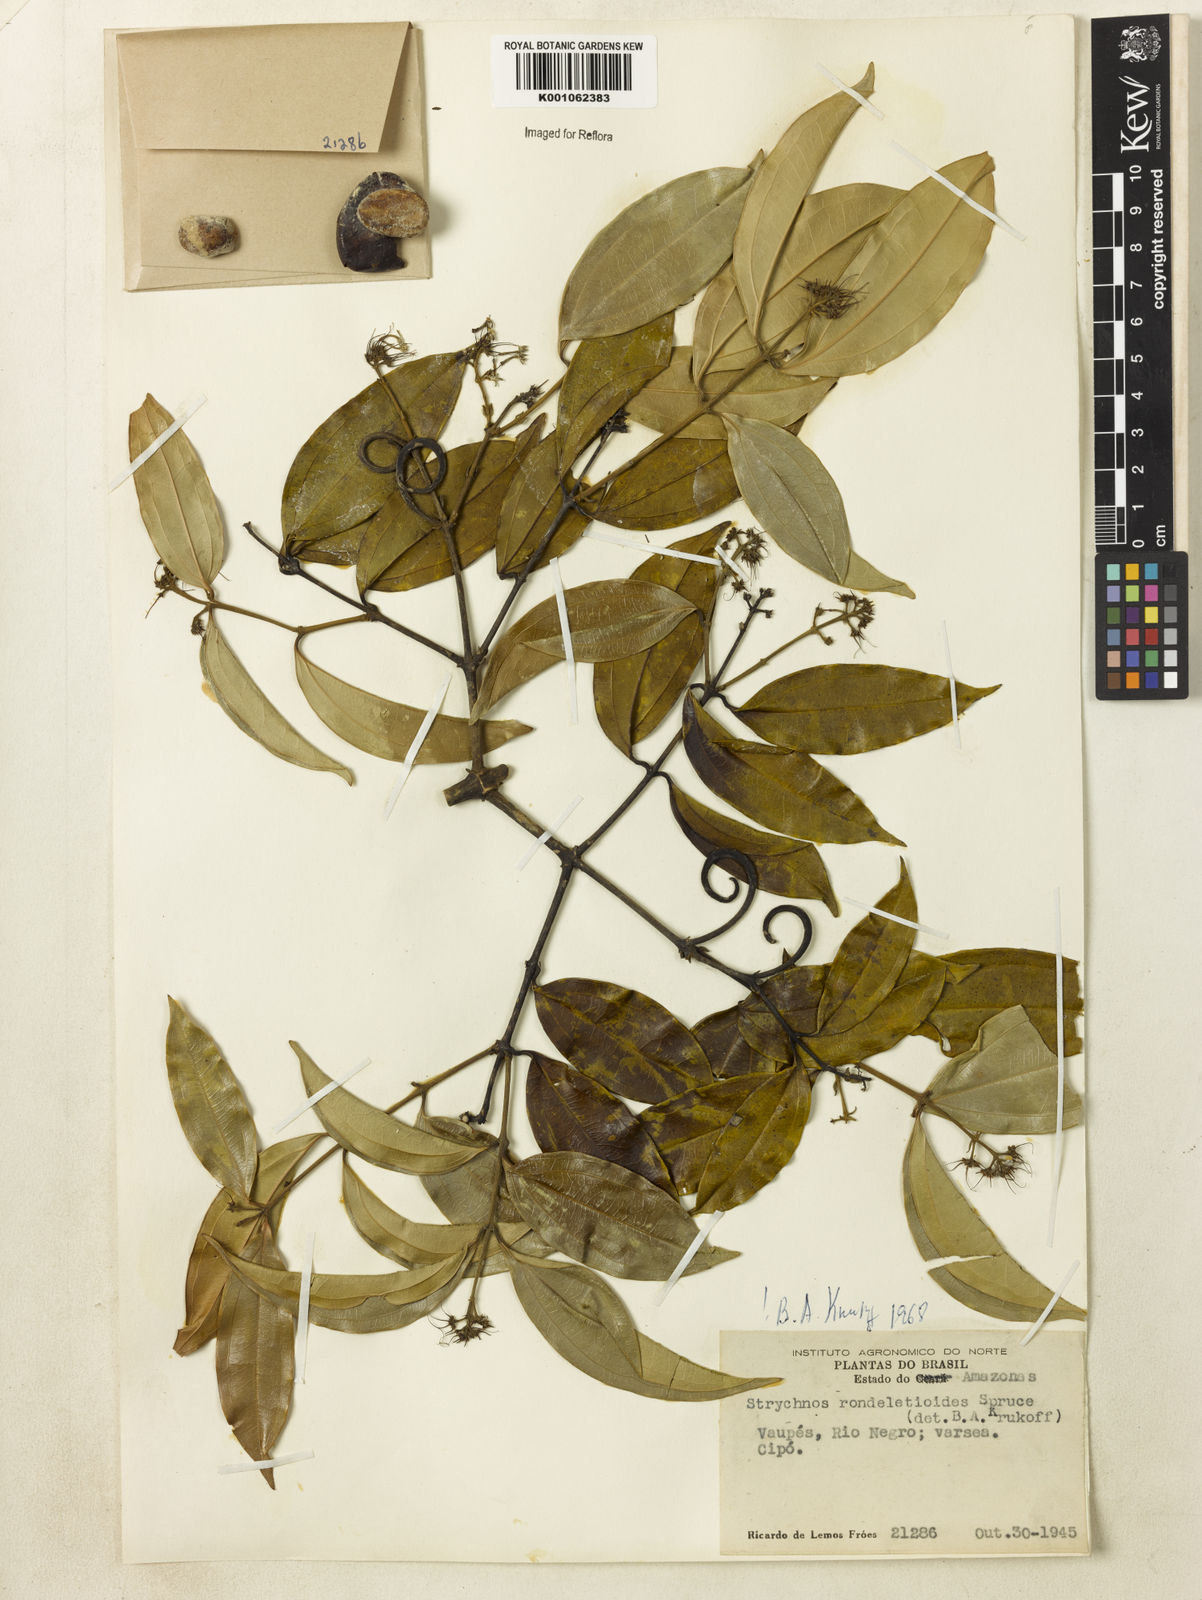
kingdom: Plantae
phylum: Tracheophyta
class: Magnoliopsida
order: Gentianales
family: Loganiaceae
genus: Strychnos
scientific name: Strychnos rondeletioides
